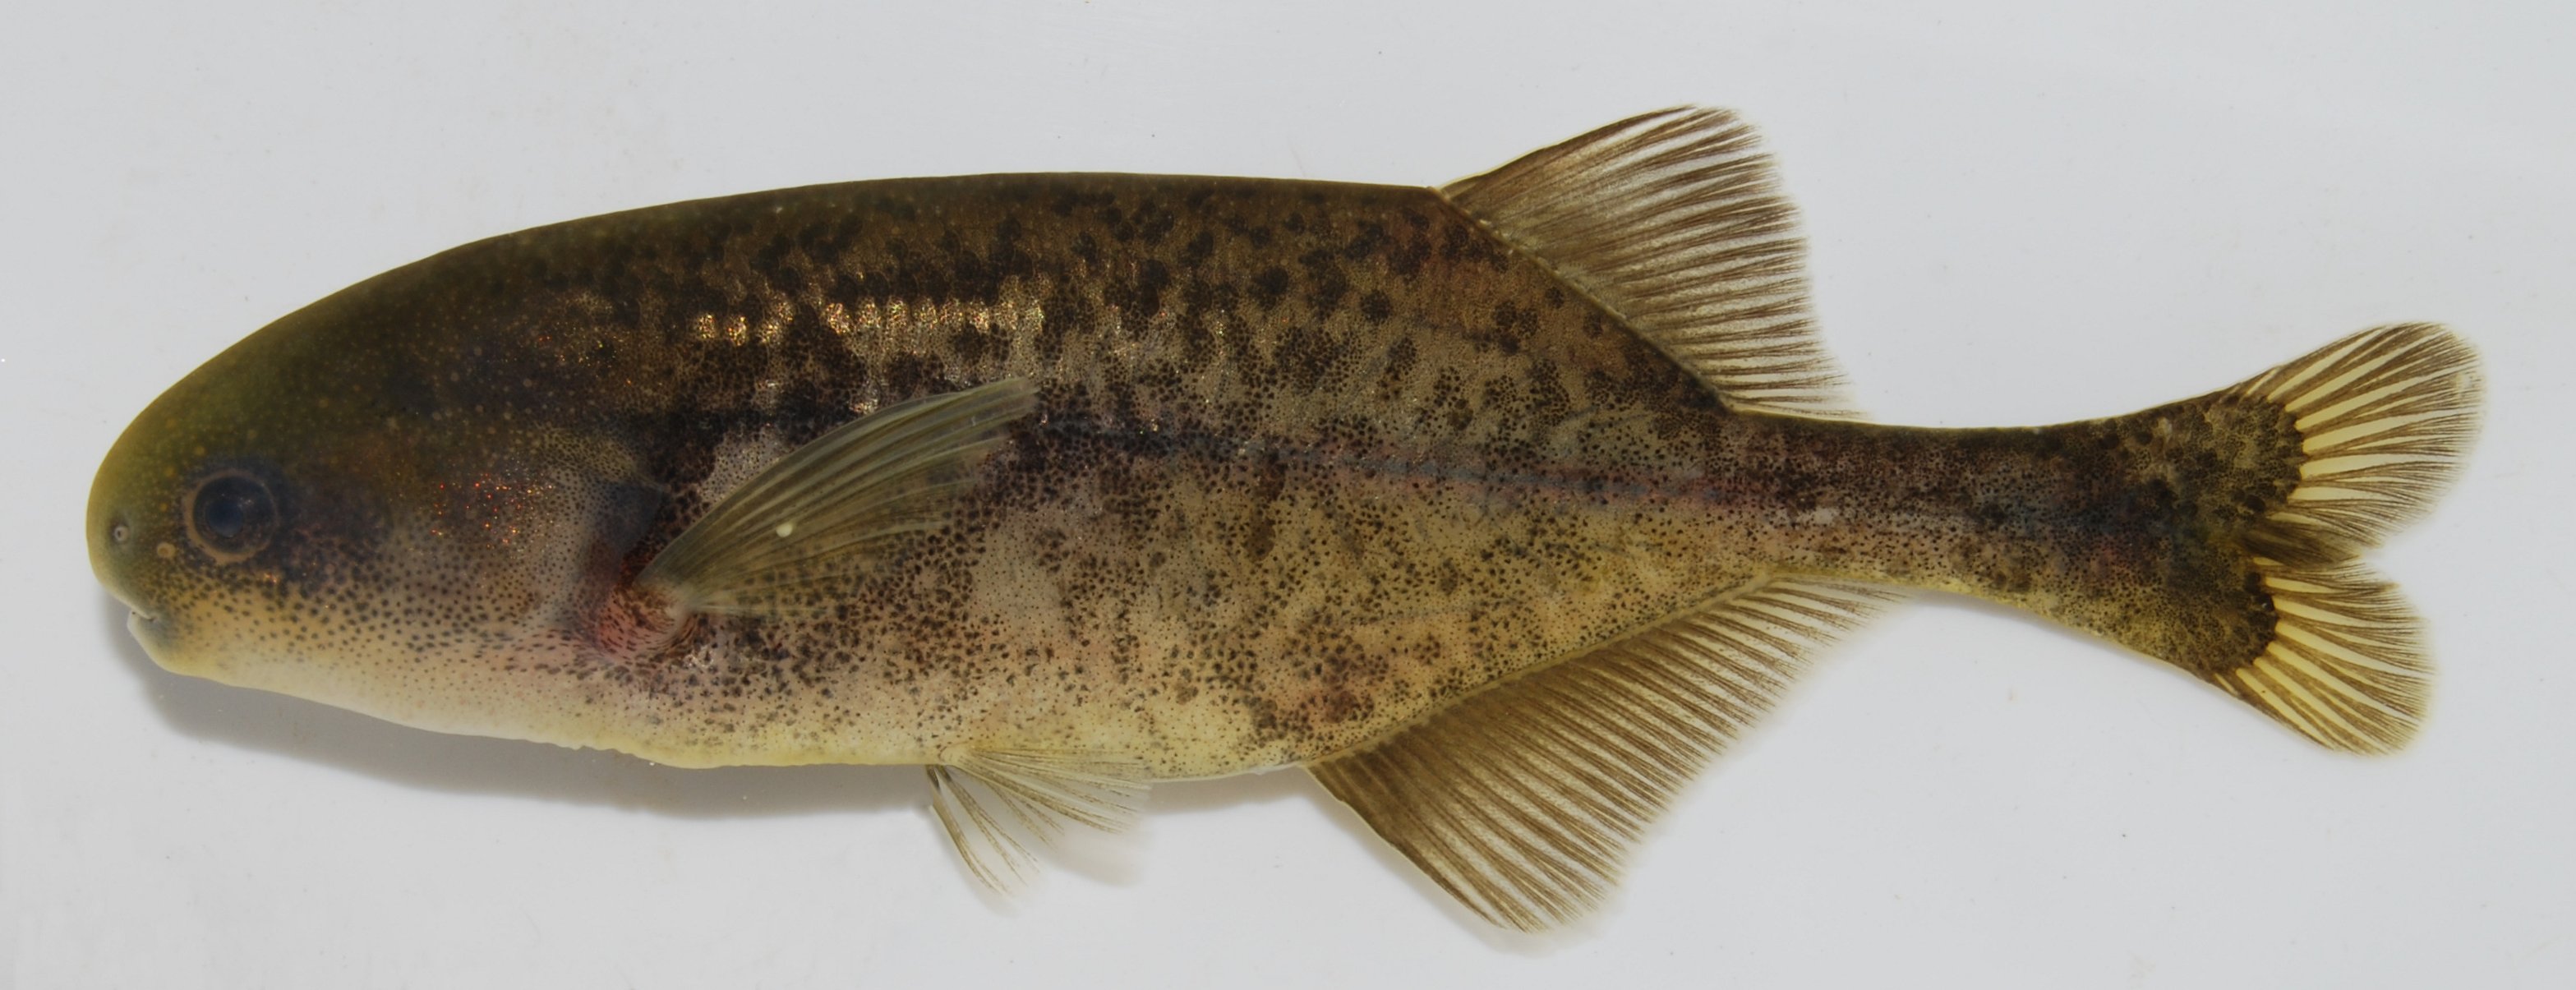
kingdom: Animalia
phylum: Chordata
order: Osteoglossiformes
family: Mormyridae
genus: Pollimyrus
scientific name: Pollimyrus castelnaui
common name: Dwarf stonebasher
